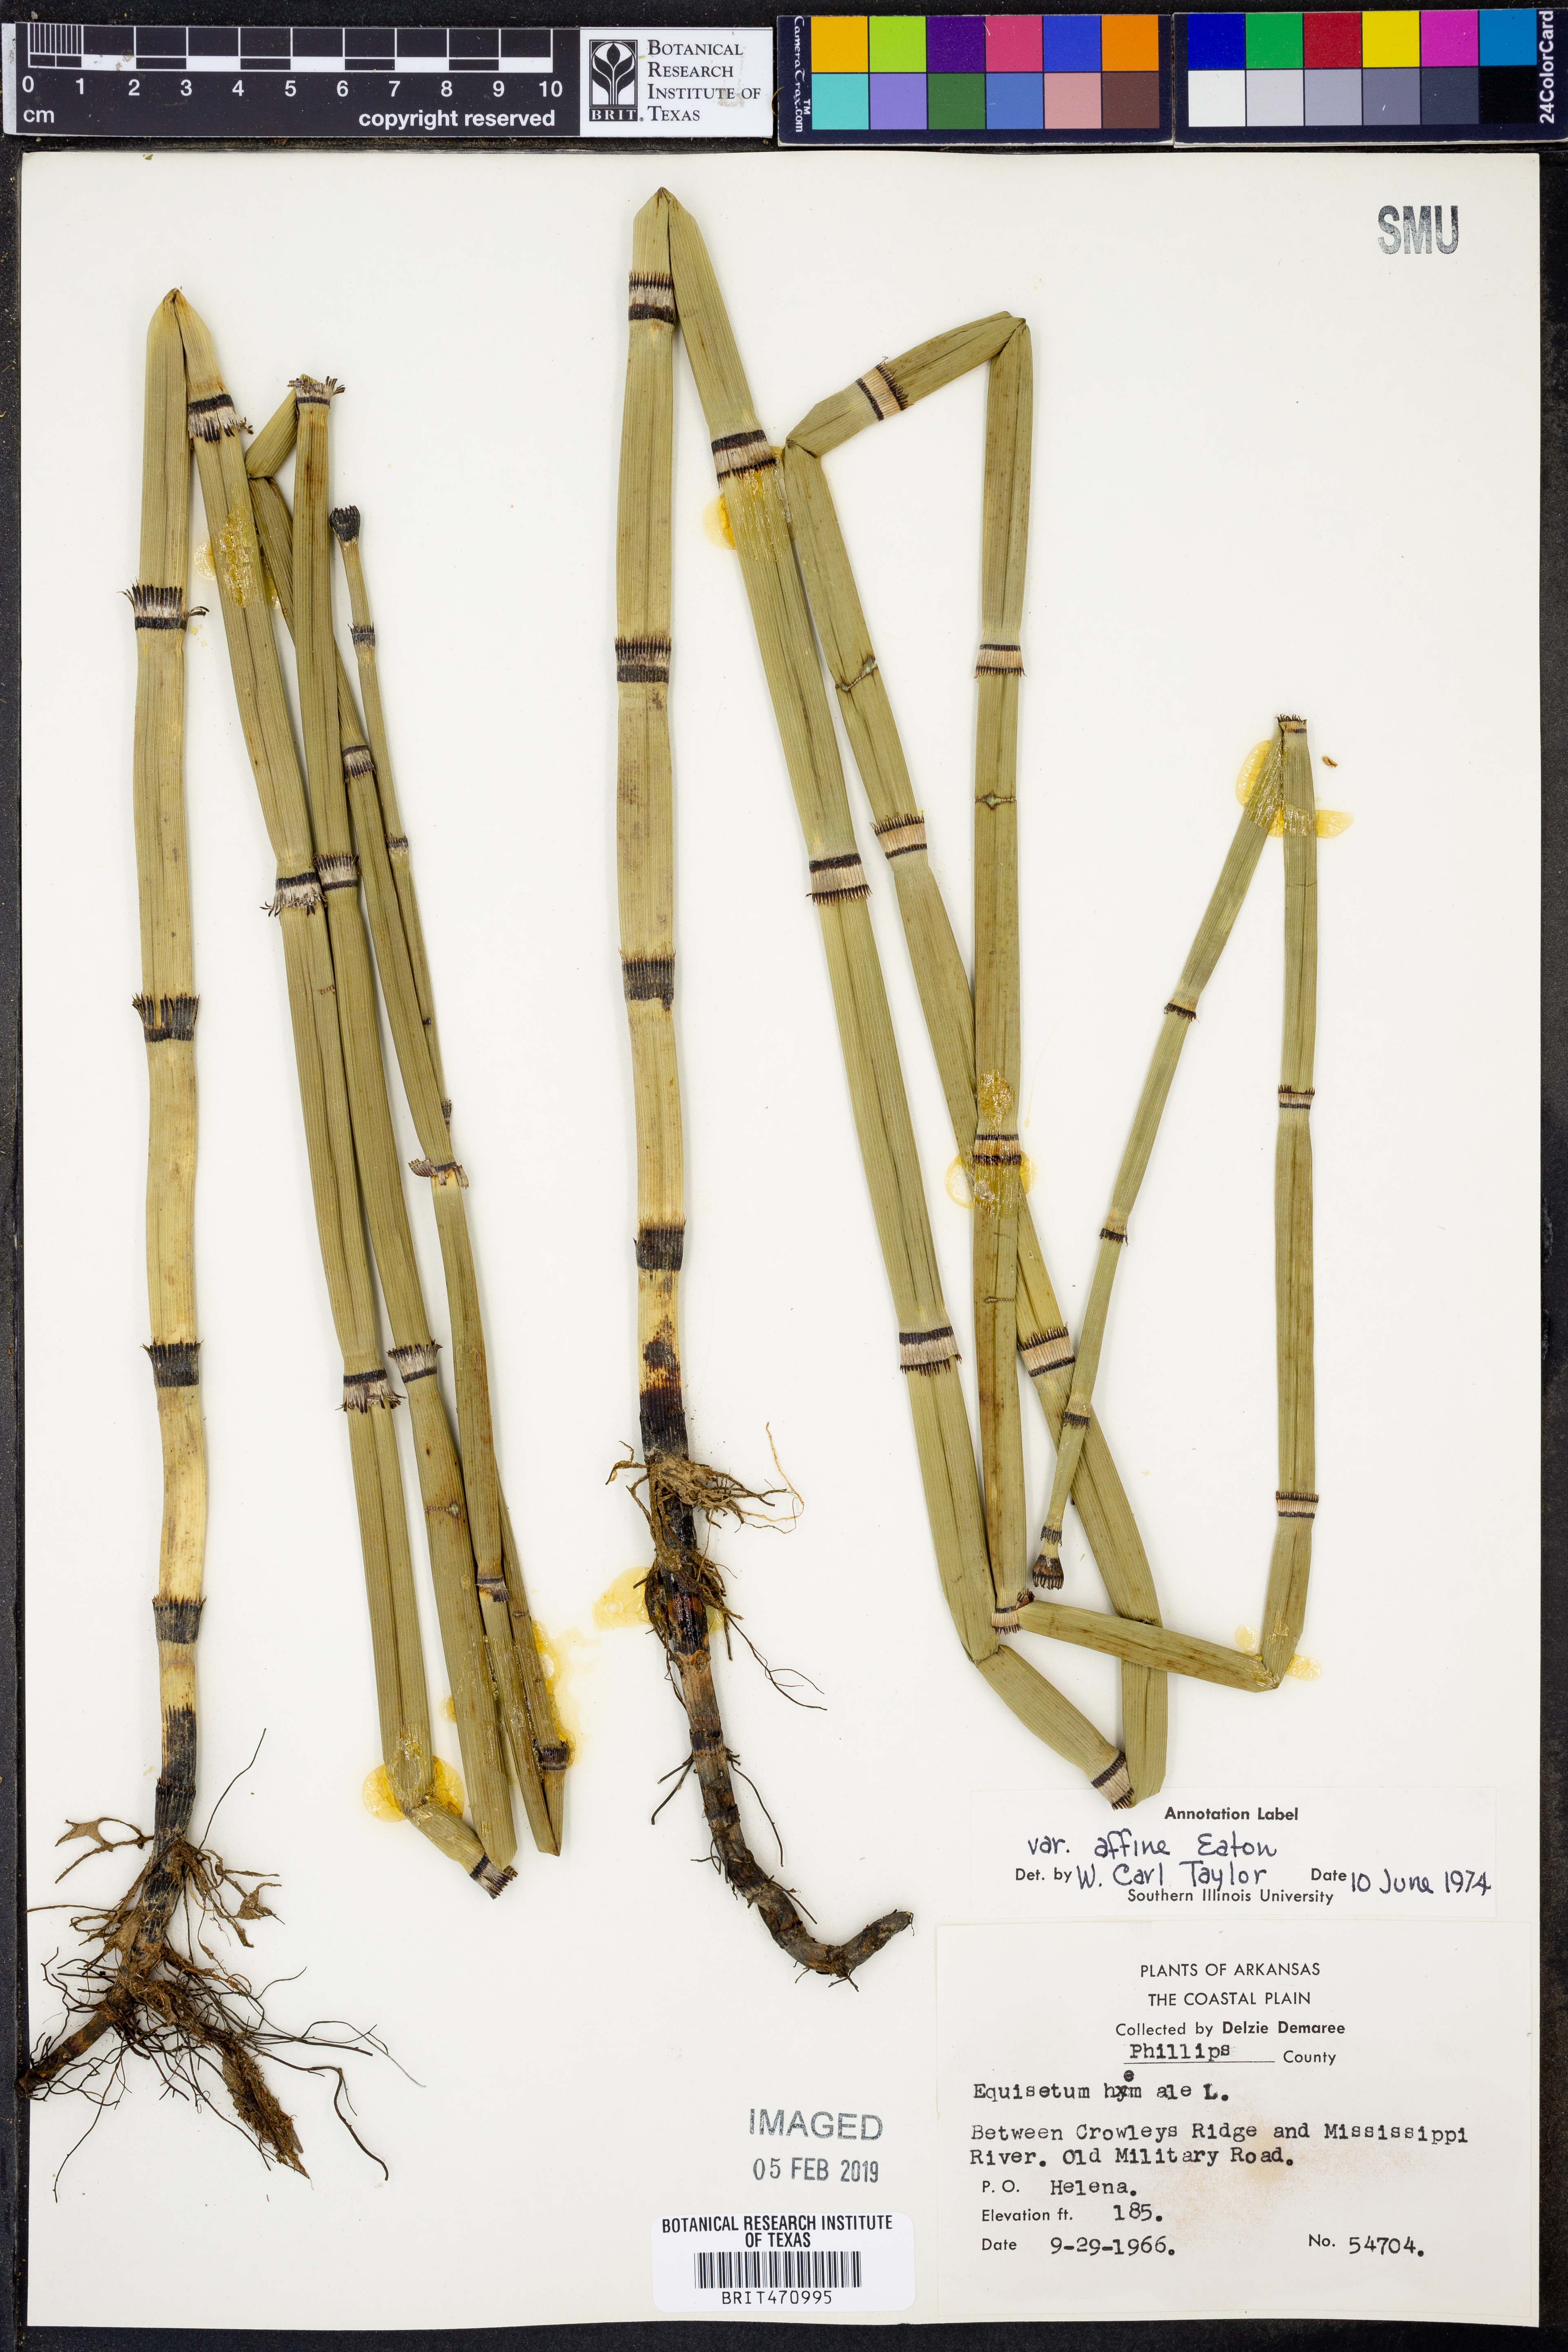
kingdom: Plantae
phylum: Tracheophyta
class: Polypodiopsida
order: Equisetales
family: Equisetaceae
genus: Equisetum
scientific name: Equisetum praealtum
